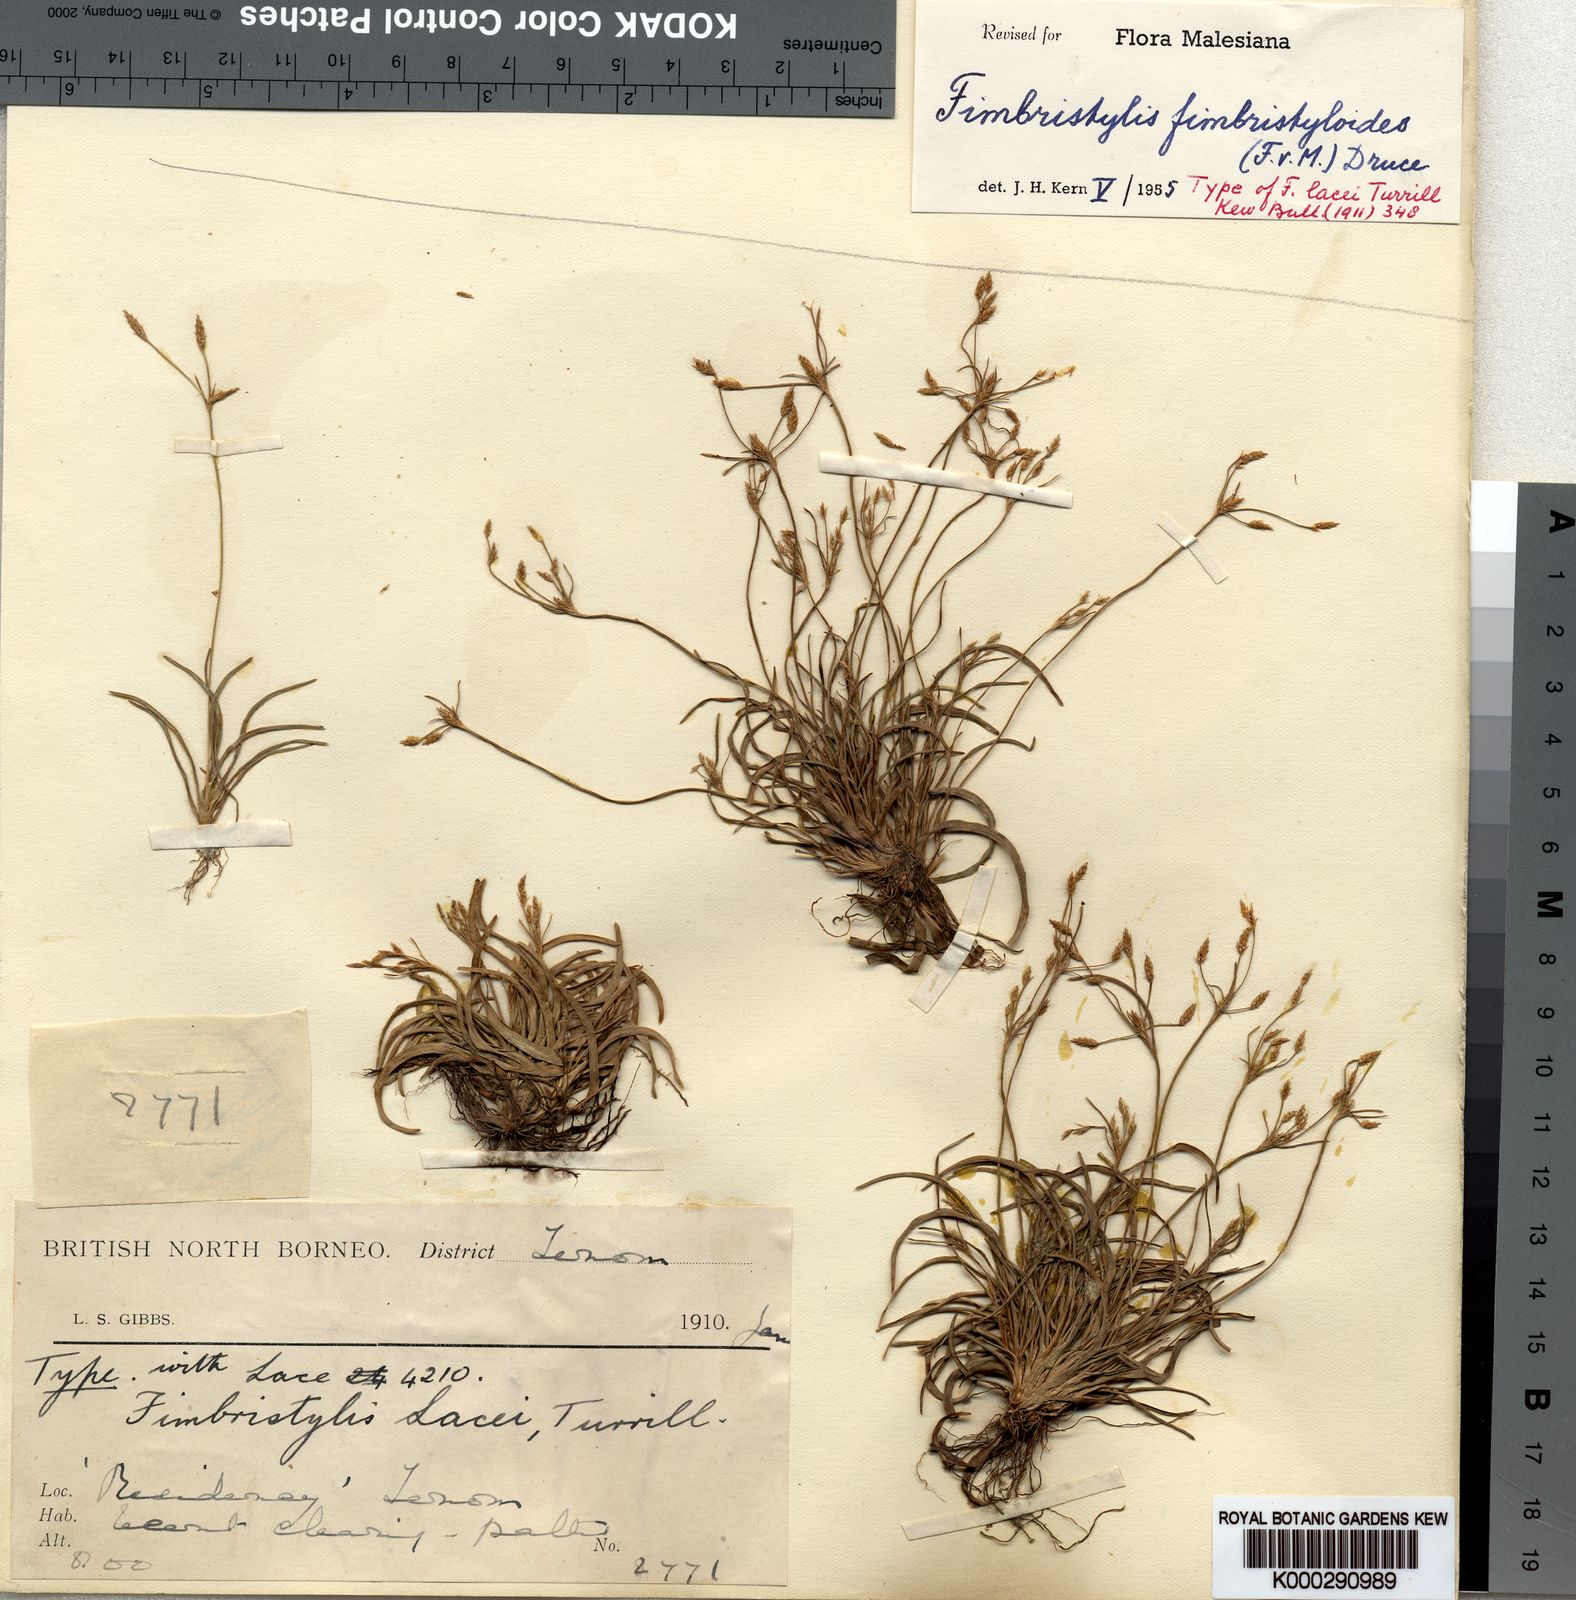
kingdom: Plantae
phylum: Tracheophyta
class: Liliopsida
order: Poales
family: Cyperaceae
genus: Fimbristylis
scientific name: Fimbristylis fimbristyloides
